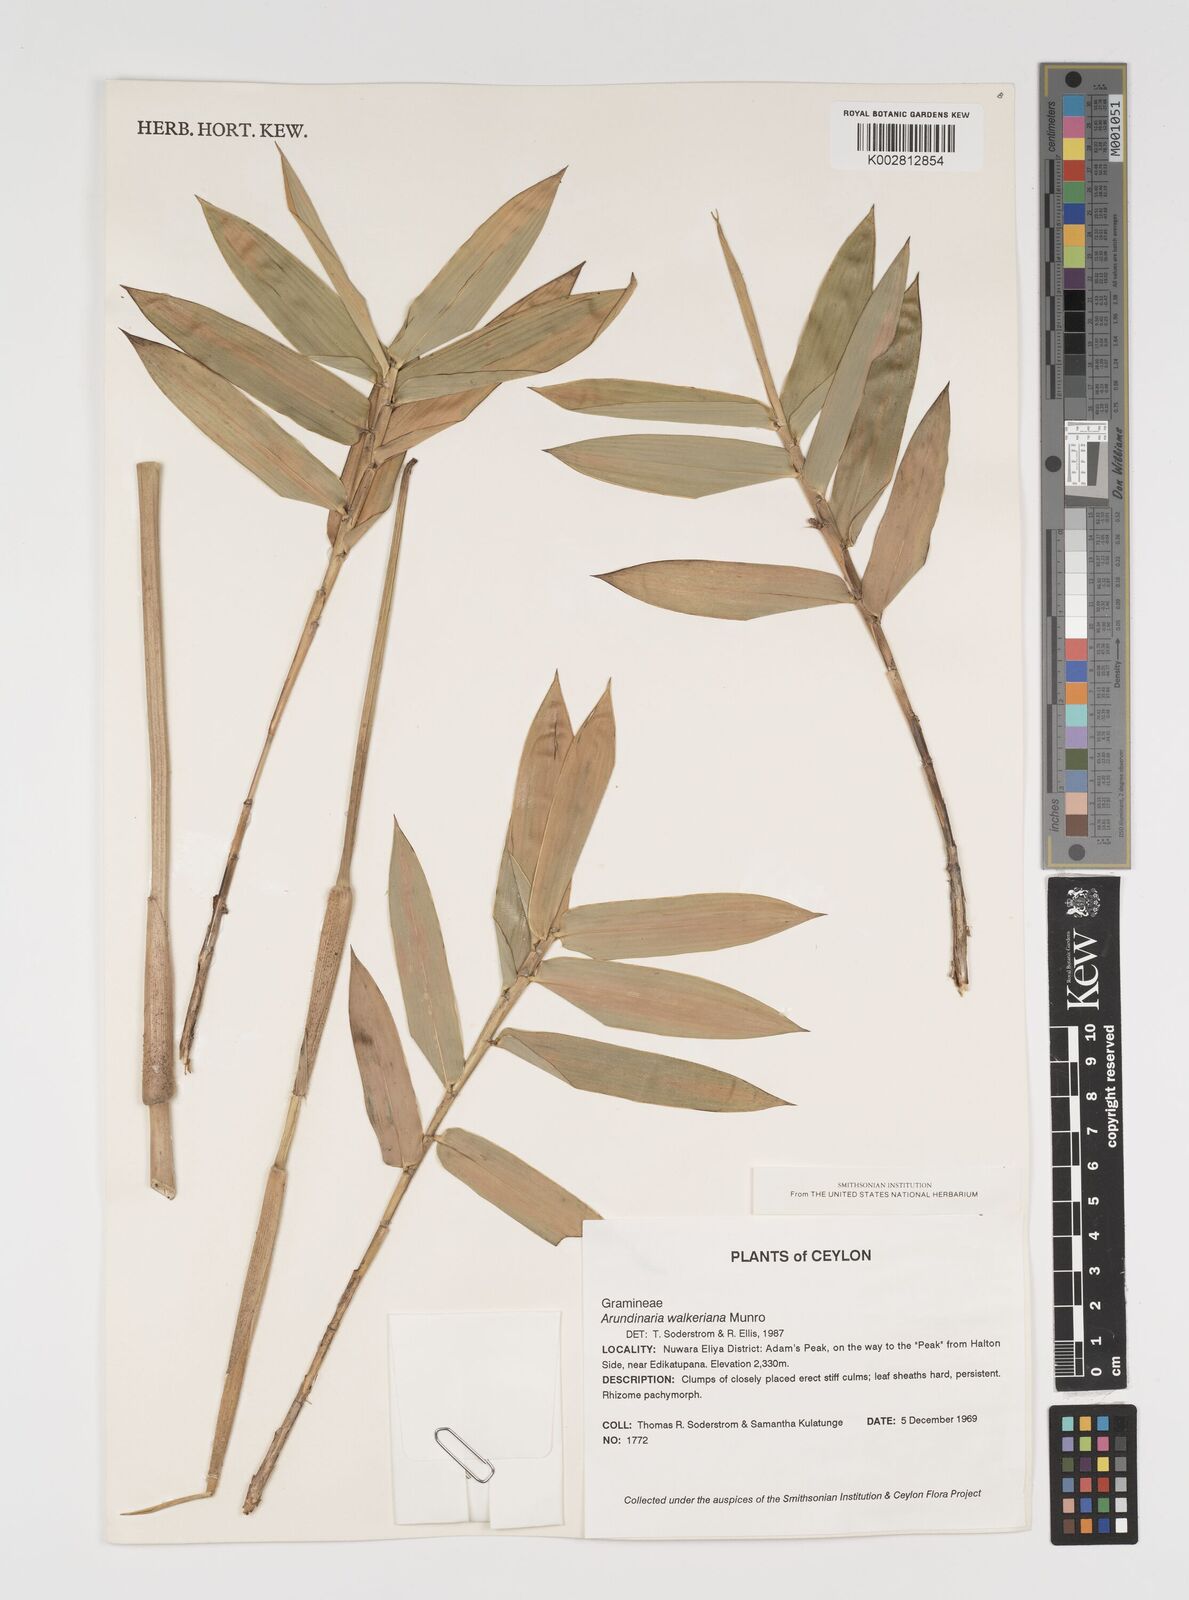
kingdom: Plantae
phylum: Tracheophyta
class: Liliopsida
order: Poales
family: Poaceae
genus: Kuruna
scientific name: Kuruna walkeriana
